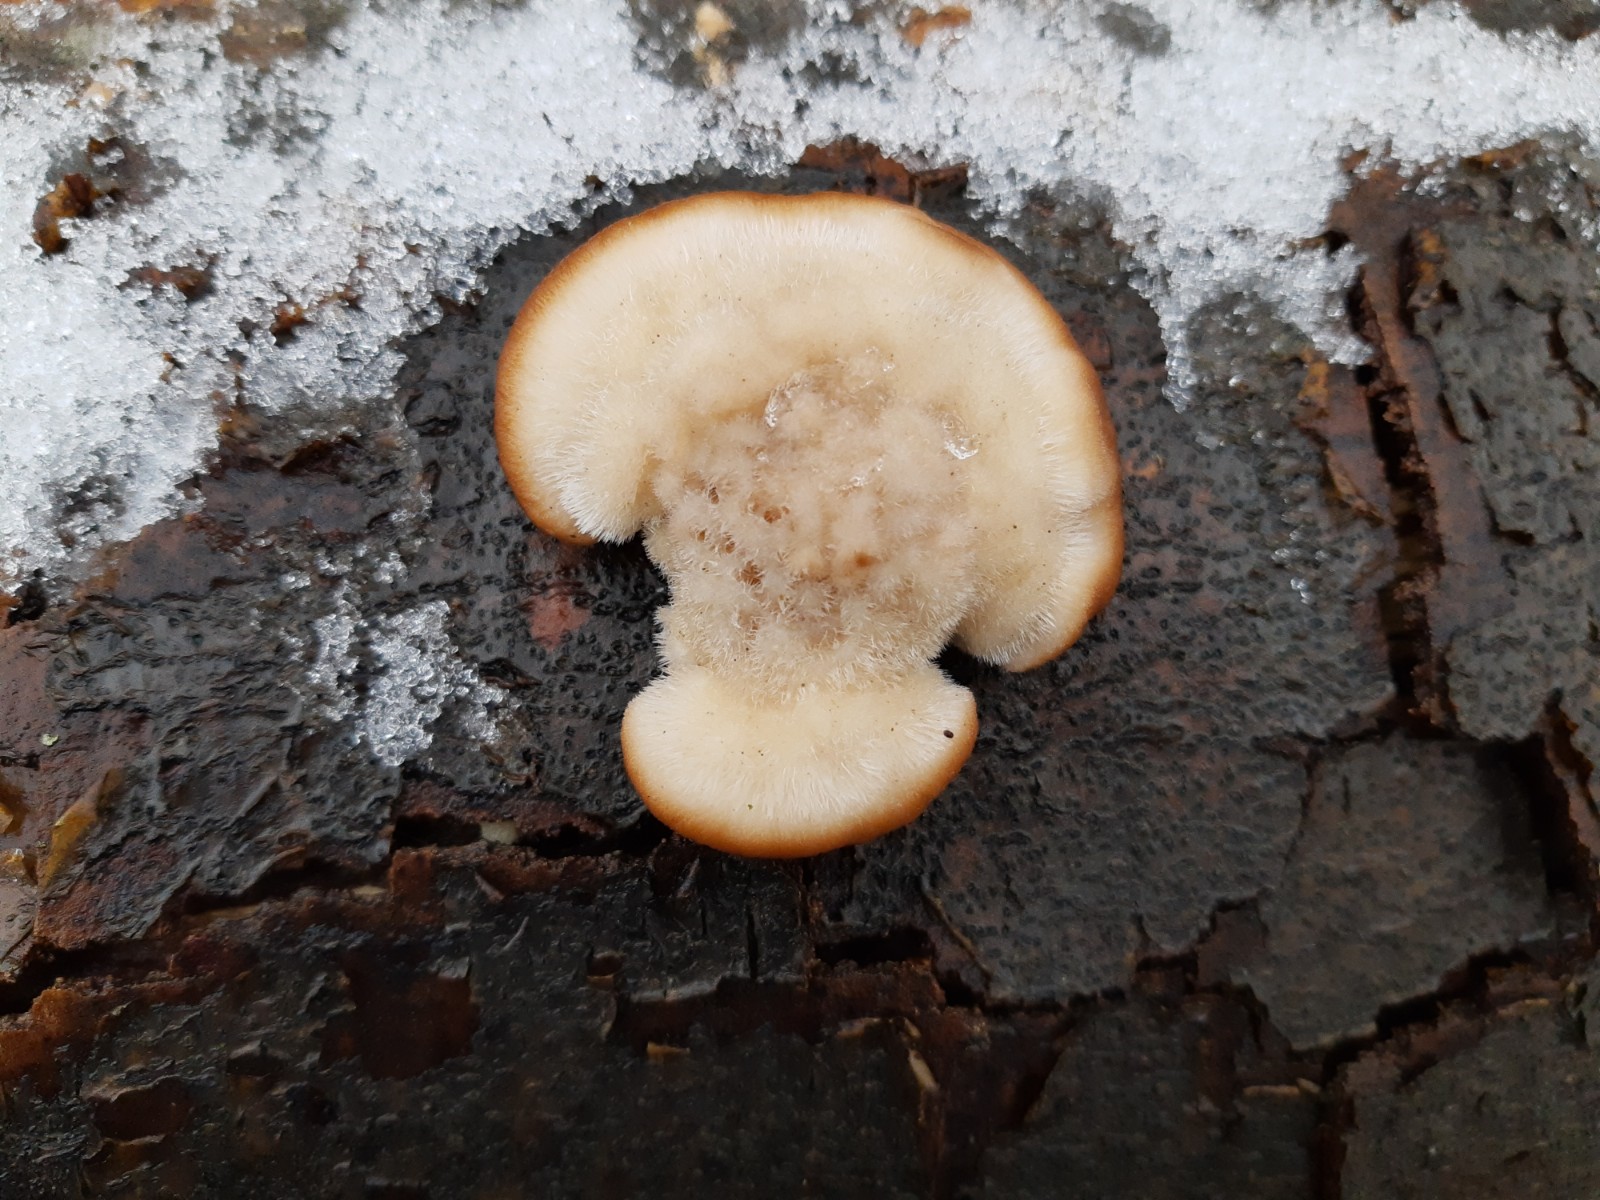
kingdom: Fungi
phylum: Basidiomycota
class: Agaricomycetes
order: Polyporales
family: Polyporaceae
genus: Trametes
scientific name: Trametes hirsuta
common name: håret læderporesvamp
